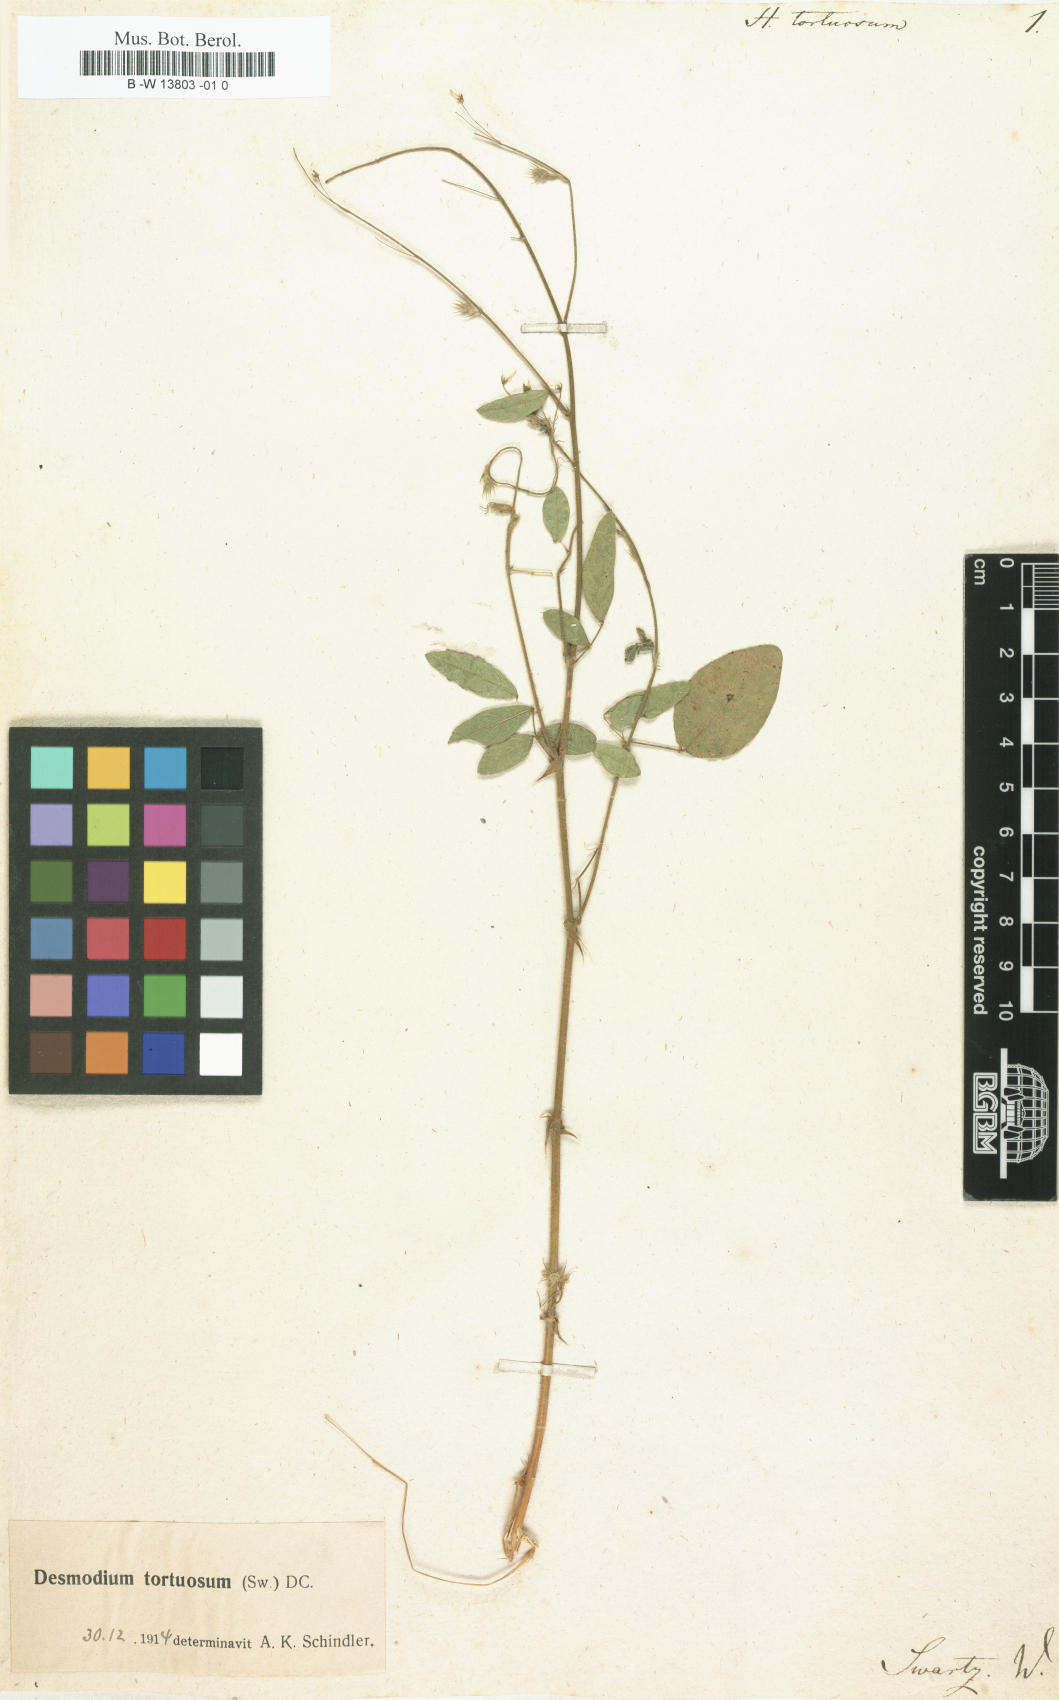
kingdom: Plantae
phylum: Tracheophyta
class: Magnoliopsida
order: Fabales
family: Fabaceae
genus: Desmodium
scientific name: Desmodium tortuosum
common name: Dixie ticktrefoil
